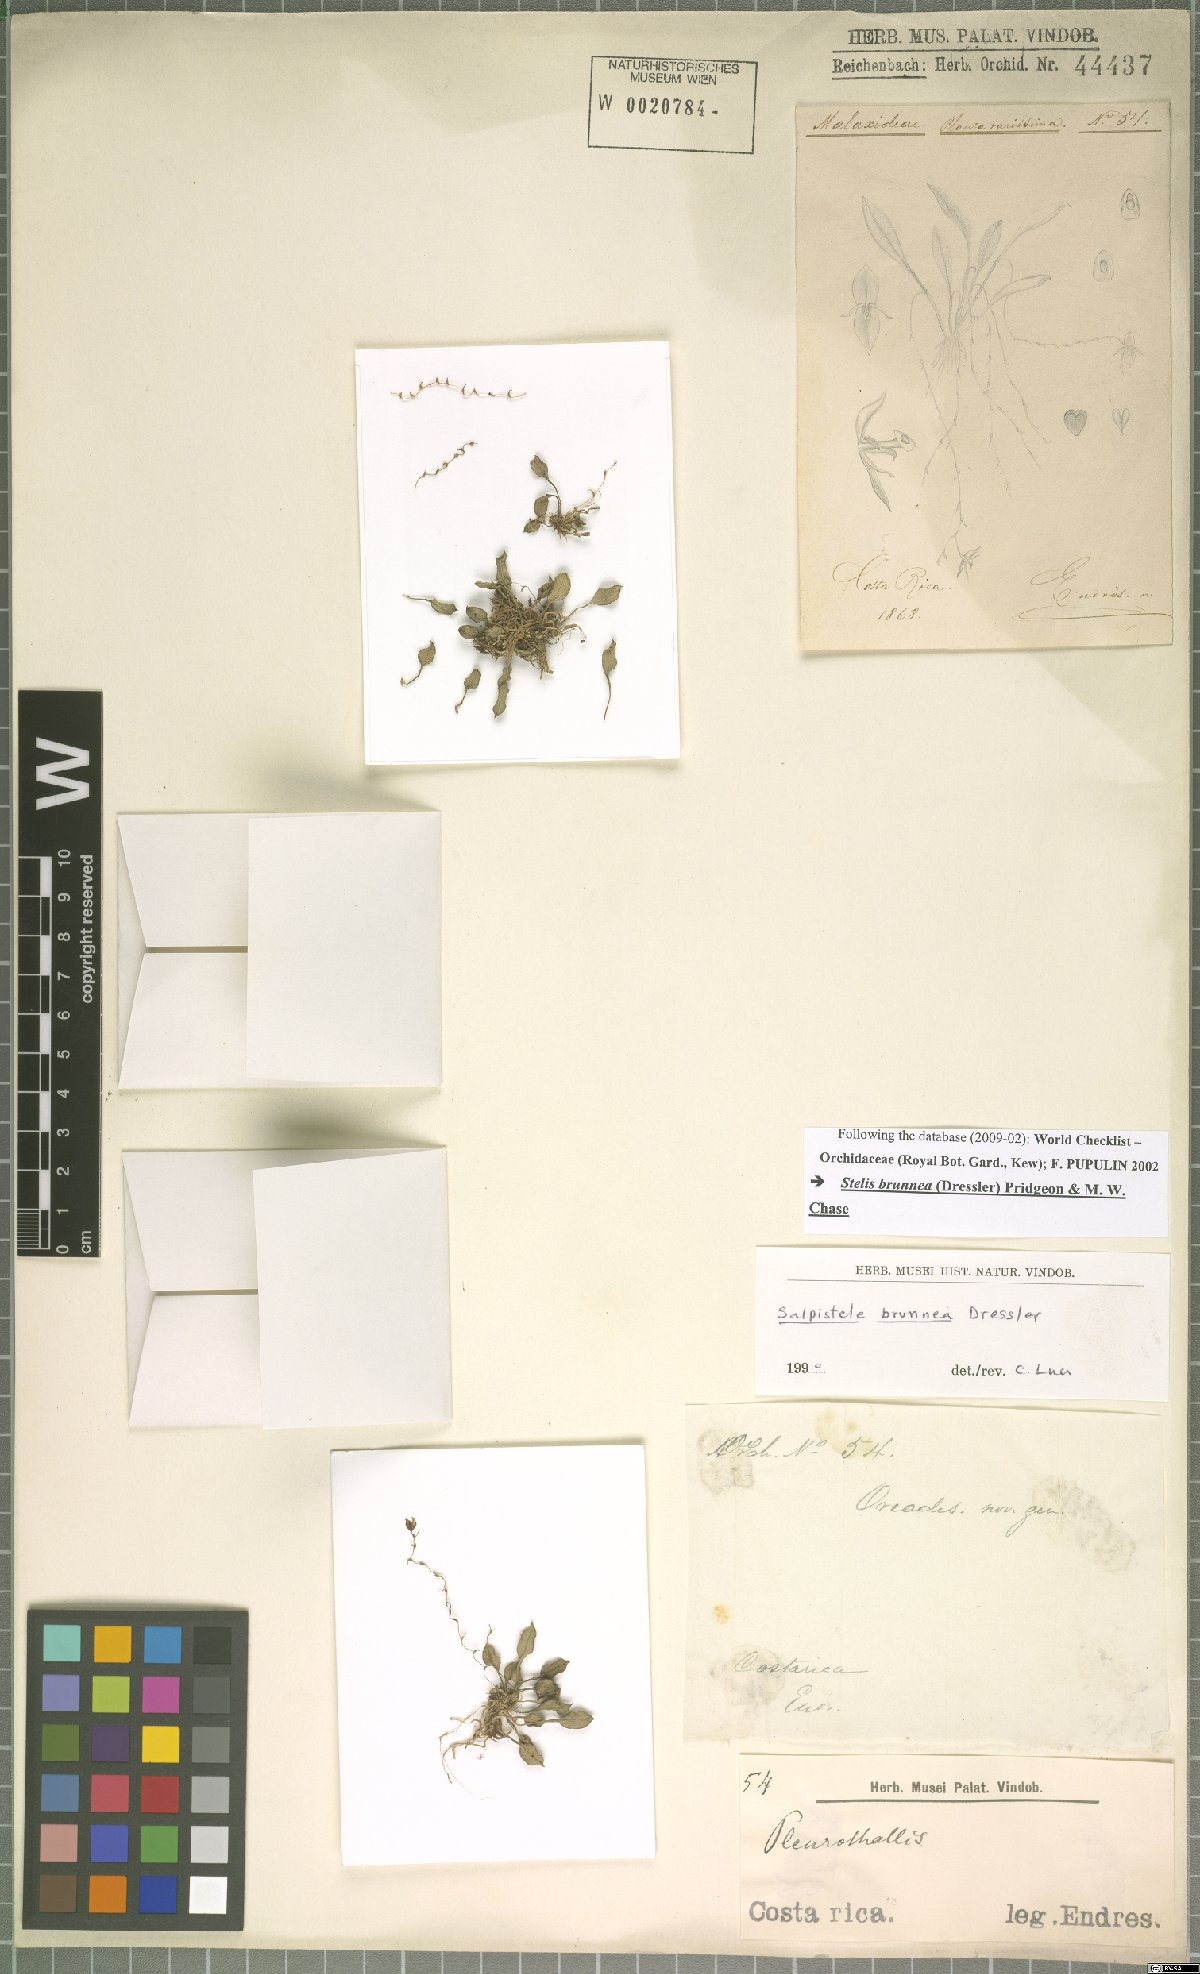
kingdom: Plantae
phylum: Tracheophyta
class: Liliopsida
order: Asparagales
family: Orchidaceae
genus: Stelis
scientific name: Stelis brunnea
